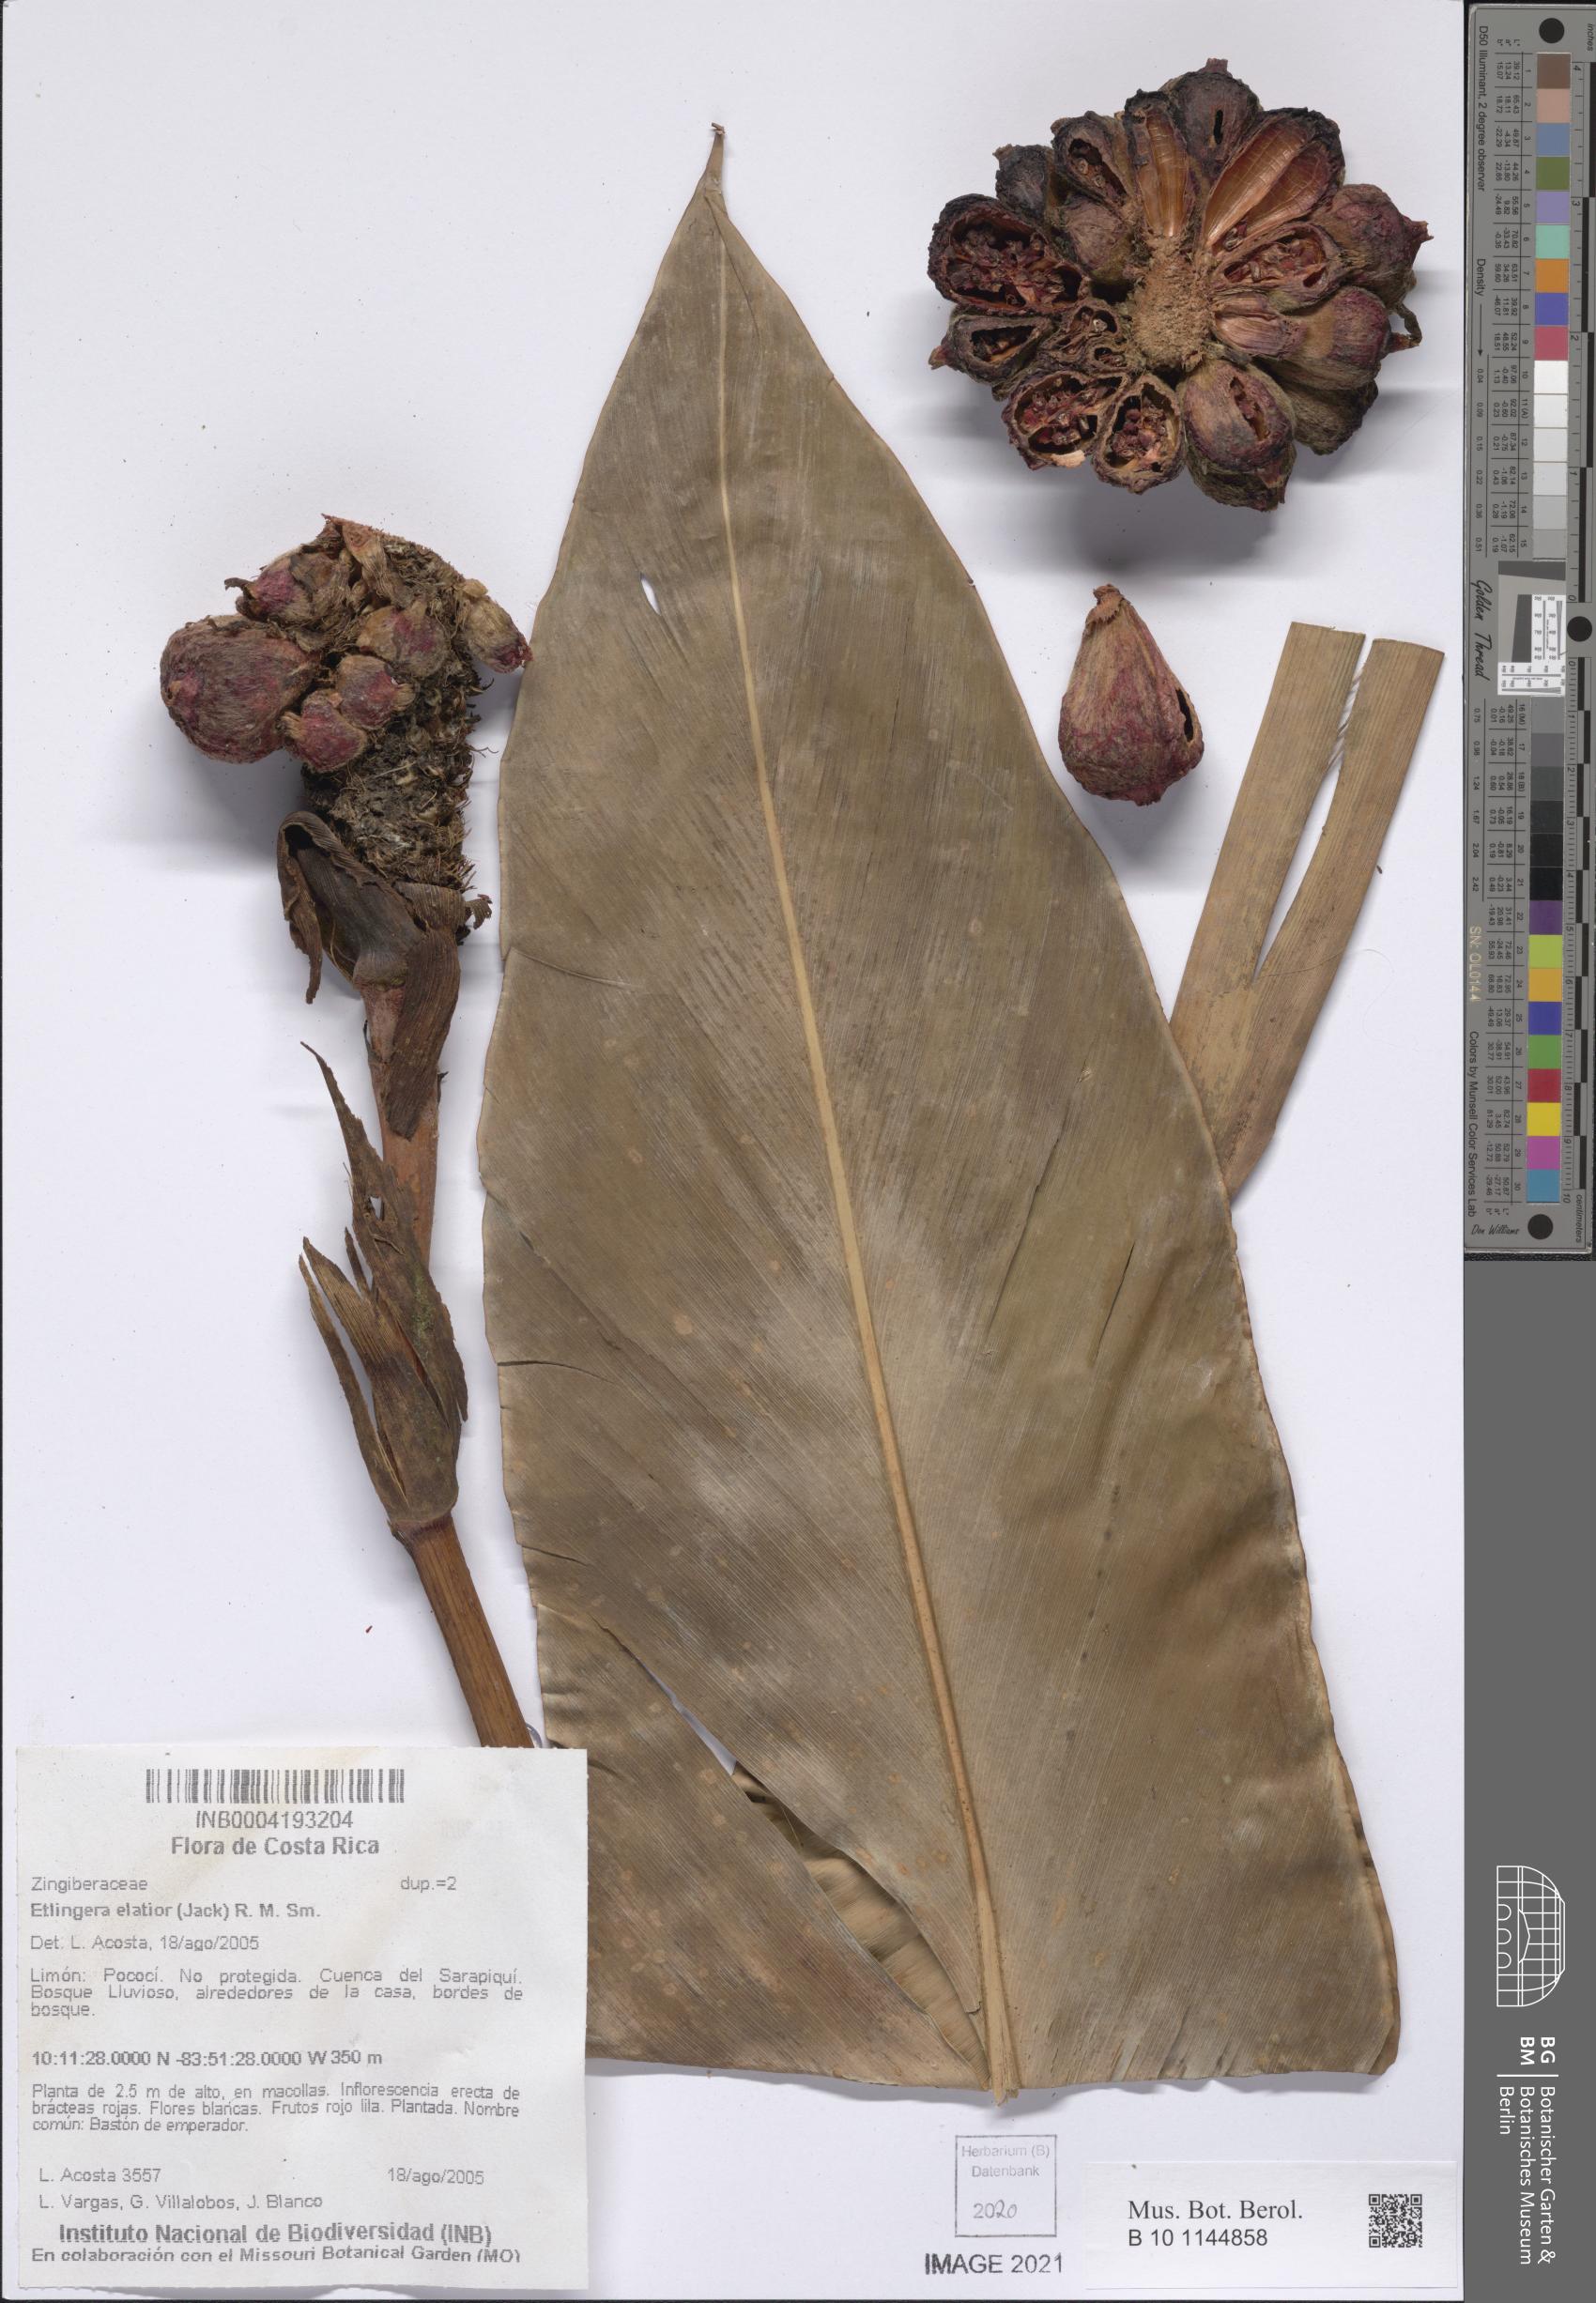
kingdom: Plantae
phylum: Tracheophyta
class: Liliopsida
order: Zingiberales
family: Zingiberaceae
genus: Etlingera
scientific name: Etlingera elatior
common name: Philippine waxflower
